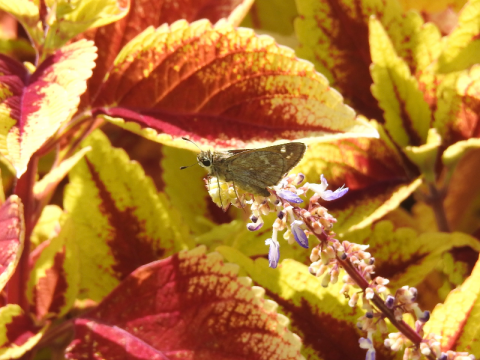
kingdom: Animalia
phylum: Arthropoda
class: Insecta
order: Lepidoptera
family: Hesperiidae
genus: Atalopedes
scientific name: Atalopedes campestris
